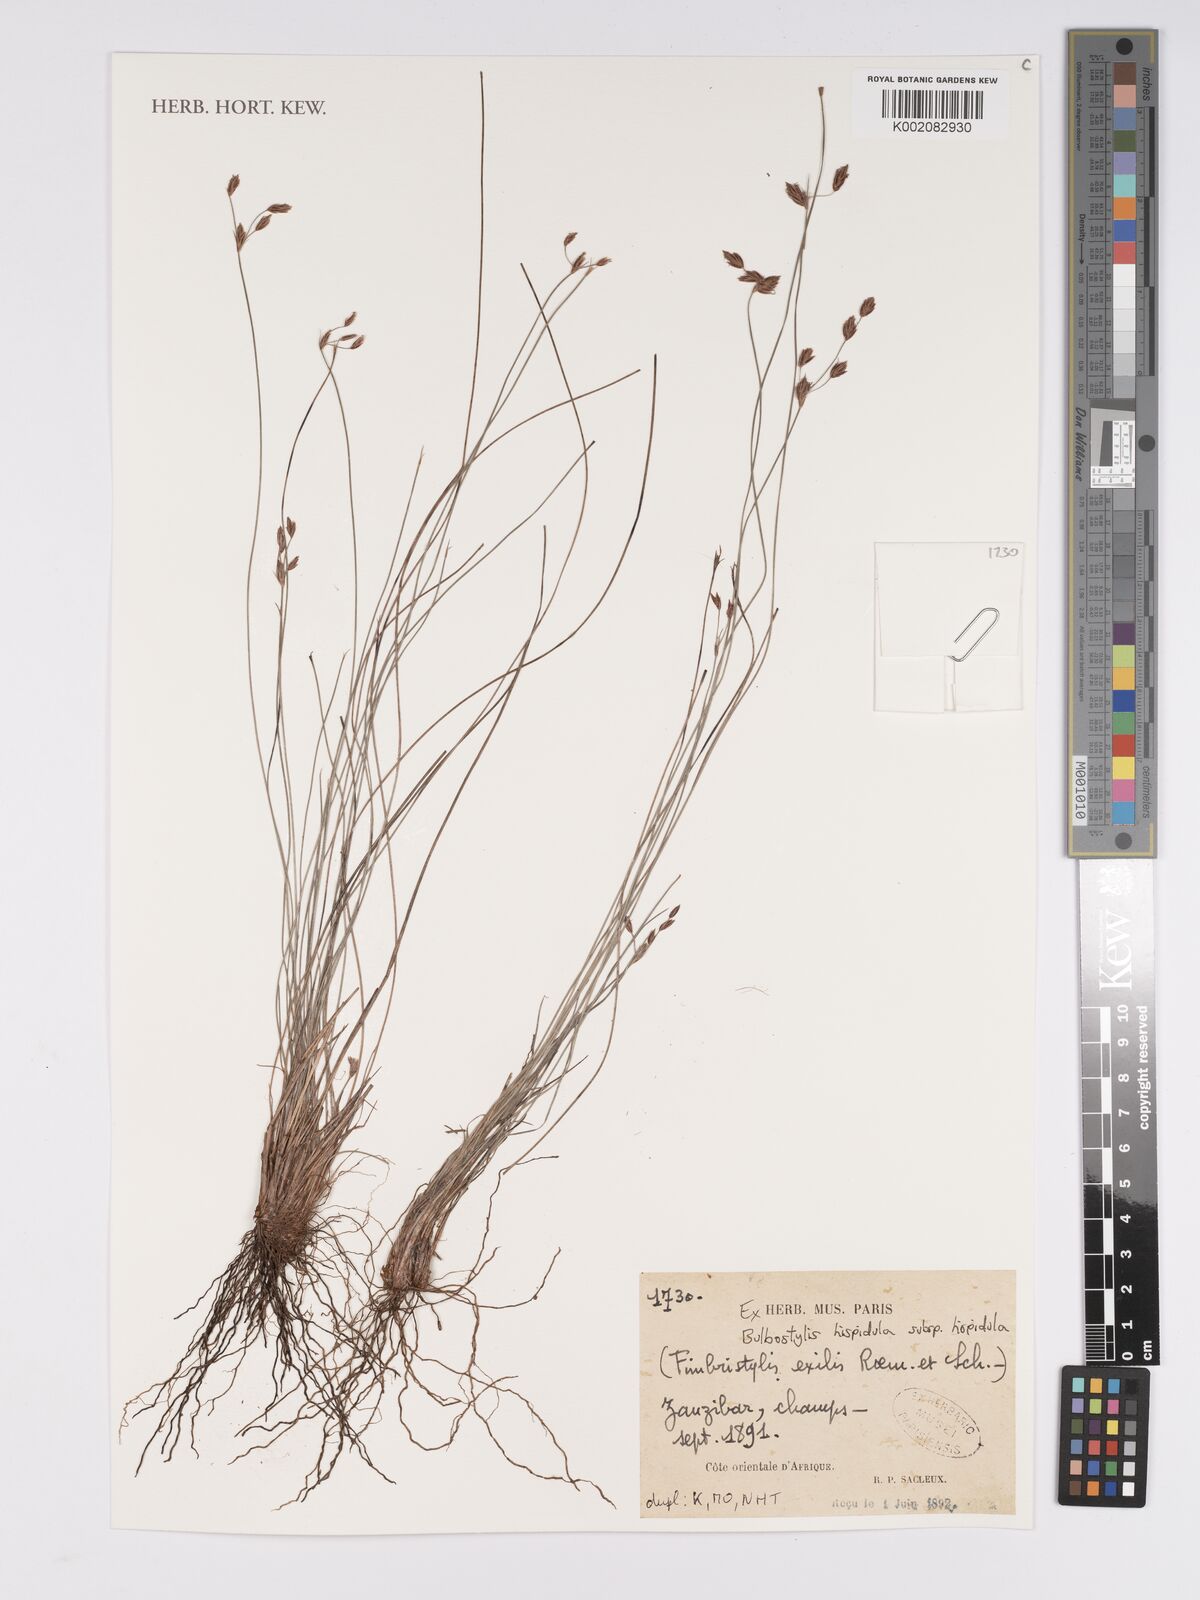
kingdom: Plantae
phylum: Tracheophyta
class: Liliopsida
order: Poales
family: Cyperaceae
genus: Bulbostylis
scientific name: Bulbostylis hispidula
